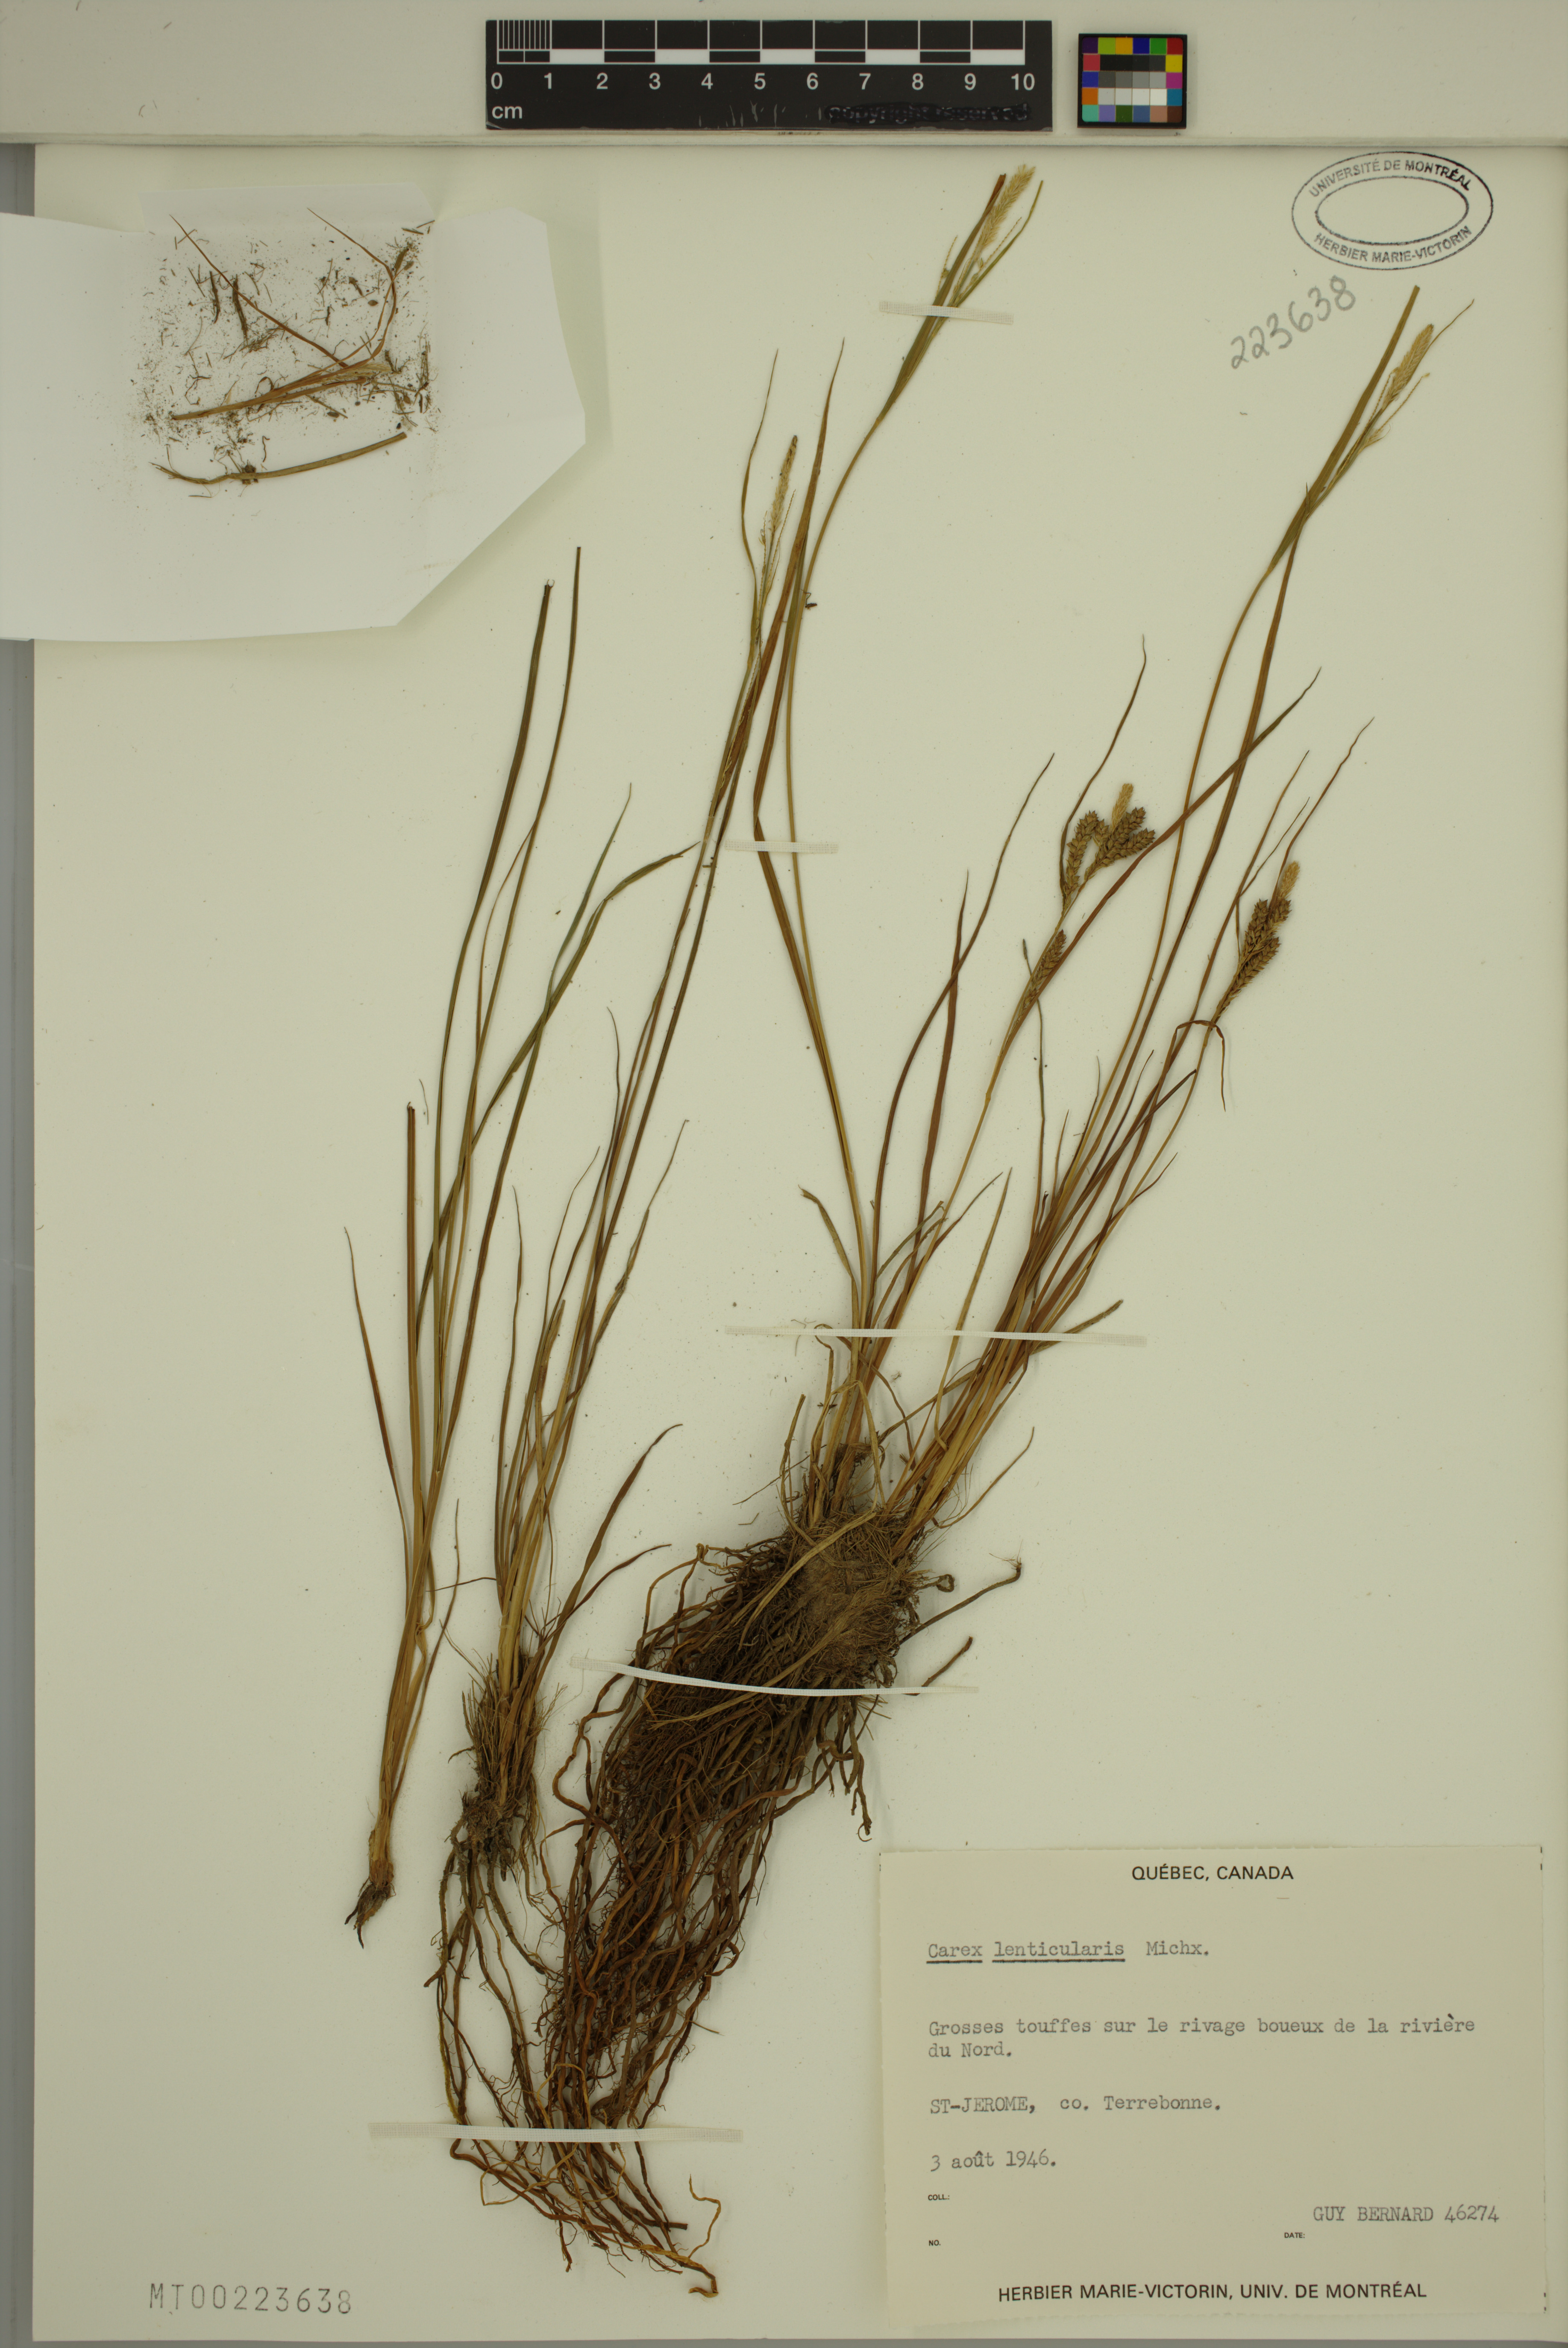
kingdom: Plantae
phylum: Tracheophyta
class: Liliopsida
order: Poales
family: Cyperaceae
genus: Carex
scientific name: Carex lenticularis
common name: Lakeshore sedge
